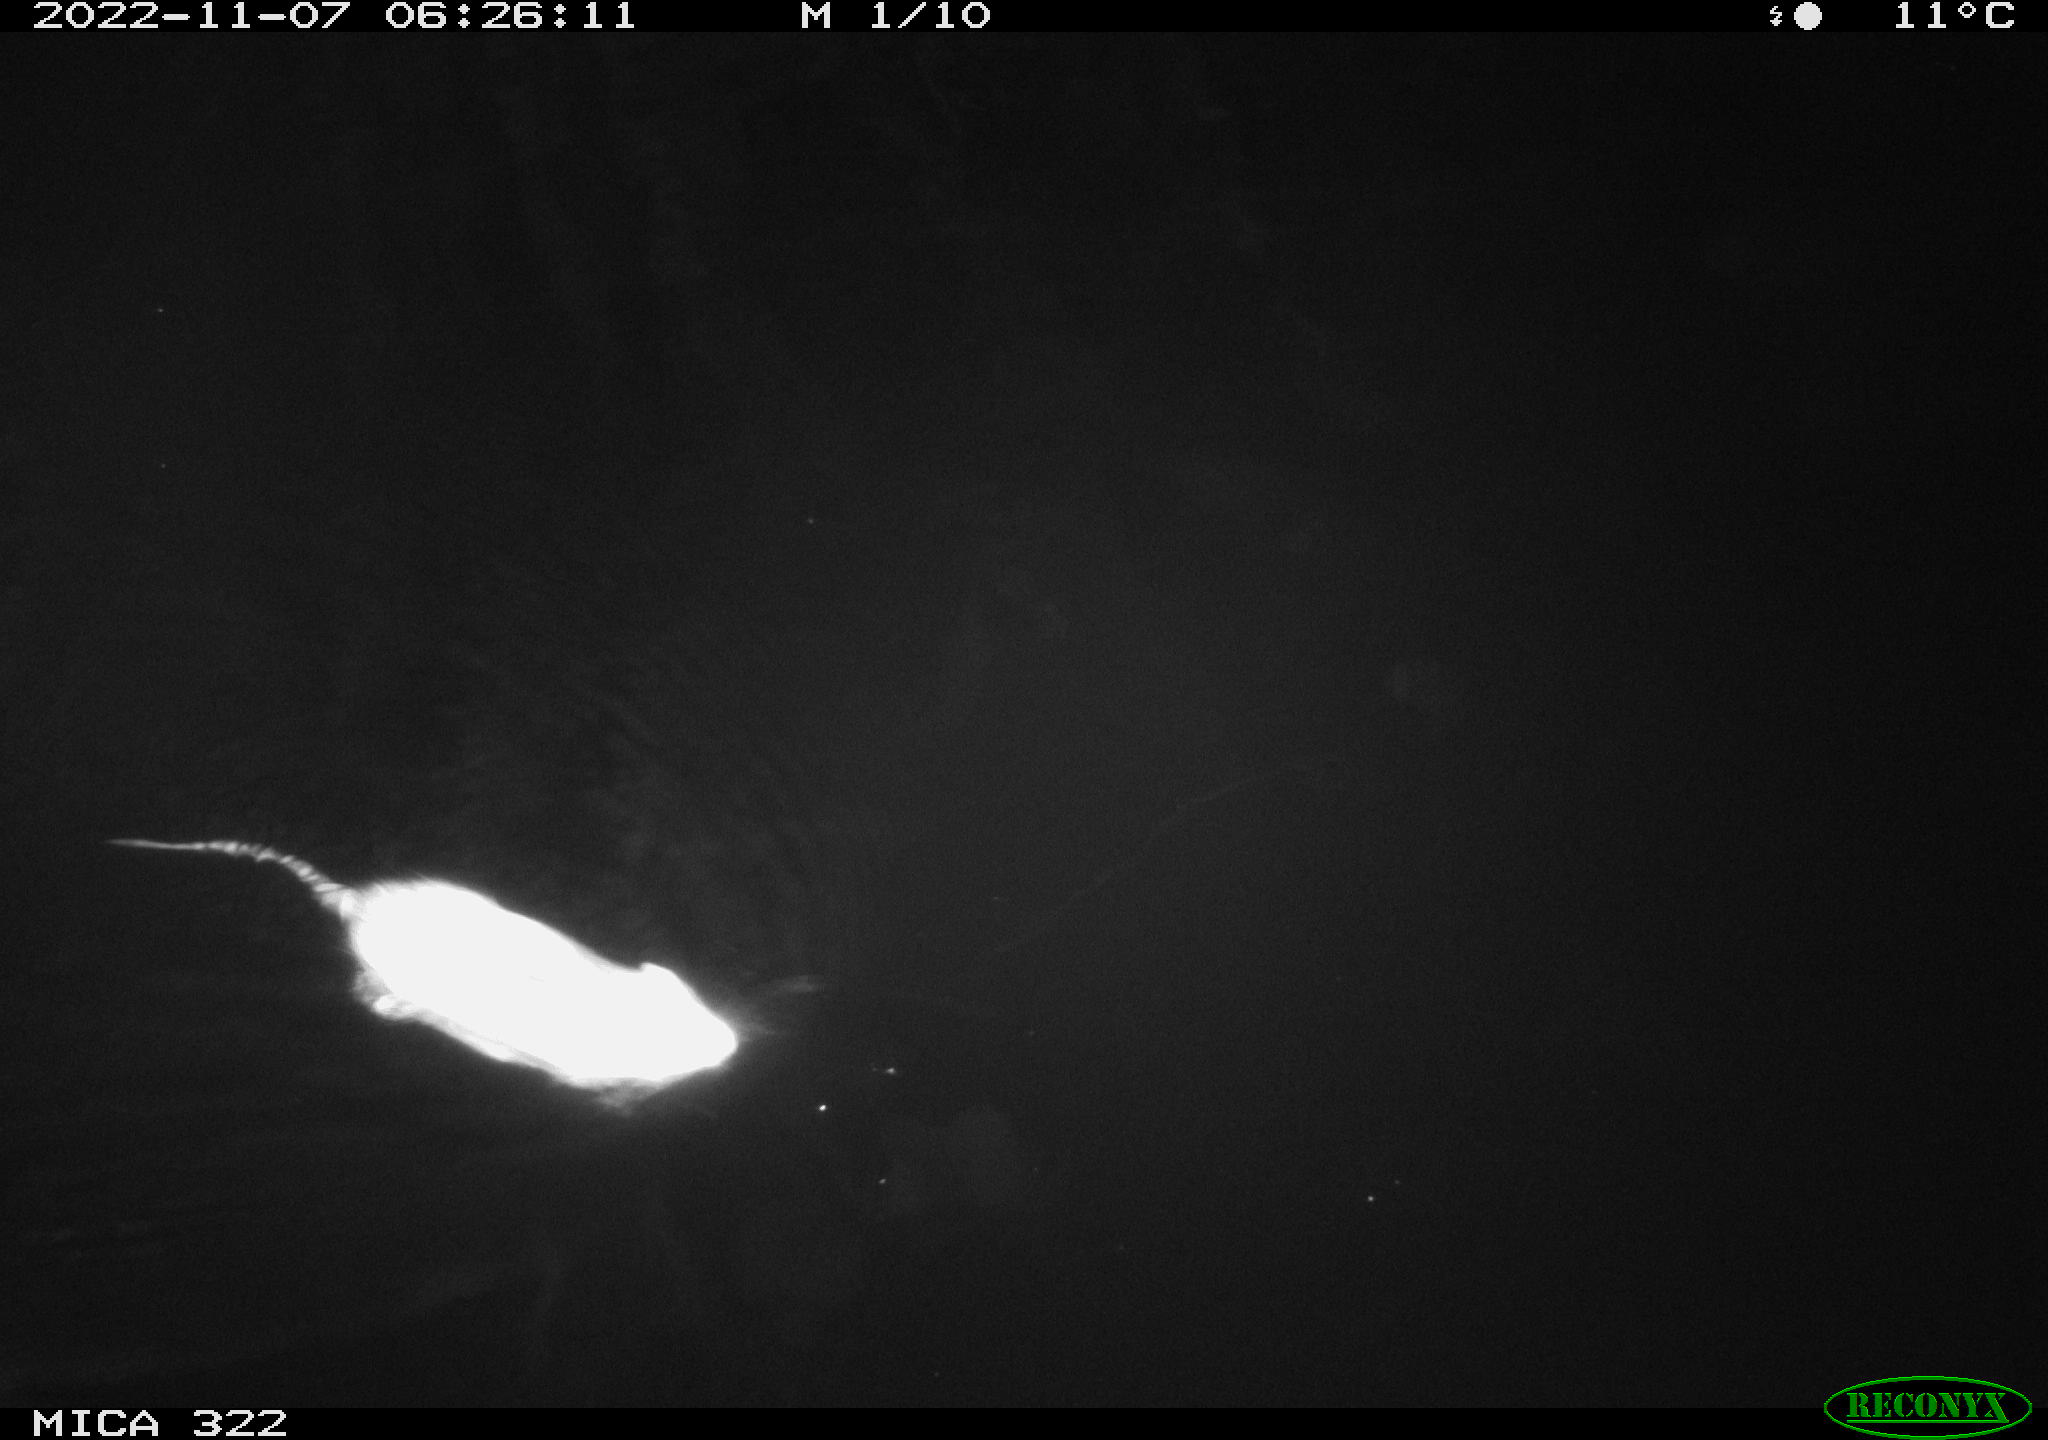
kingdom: Animalia
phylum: Chordata
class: Mammalia
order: Rodentia
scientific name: Rodentia
